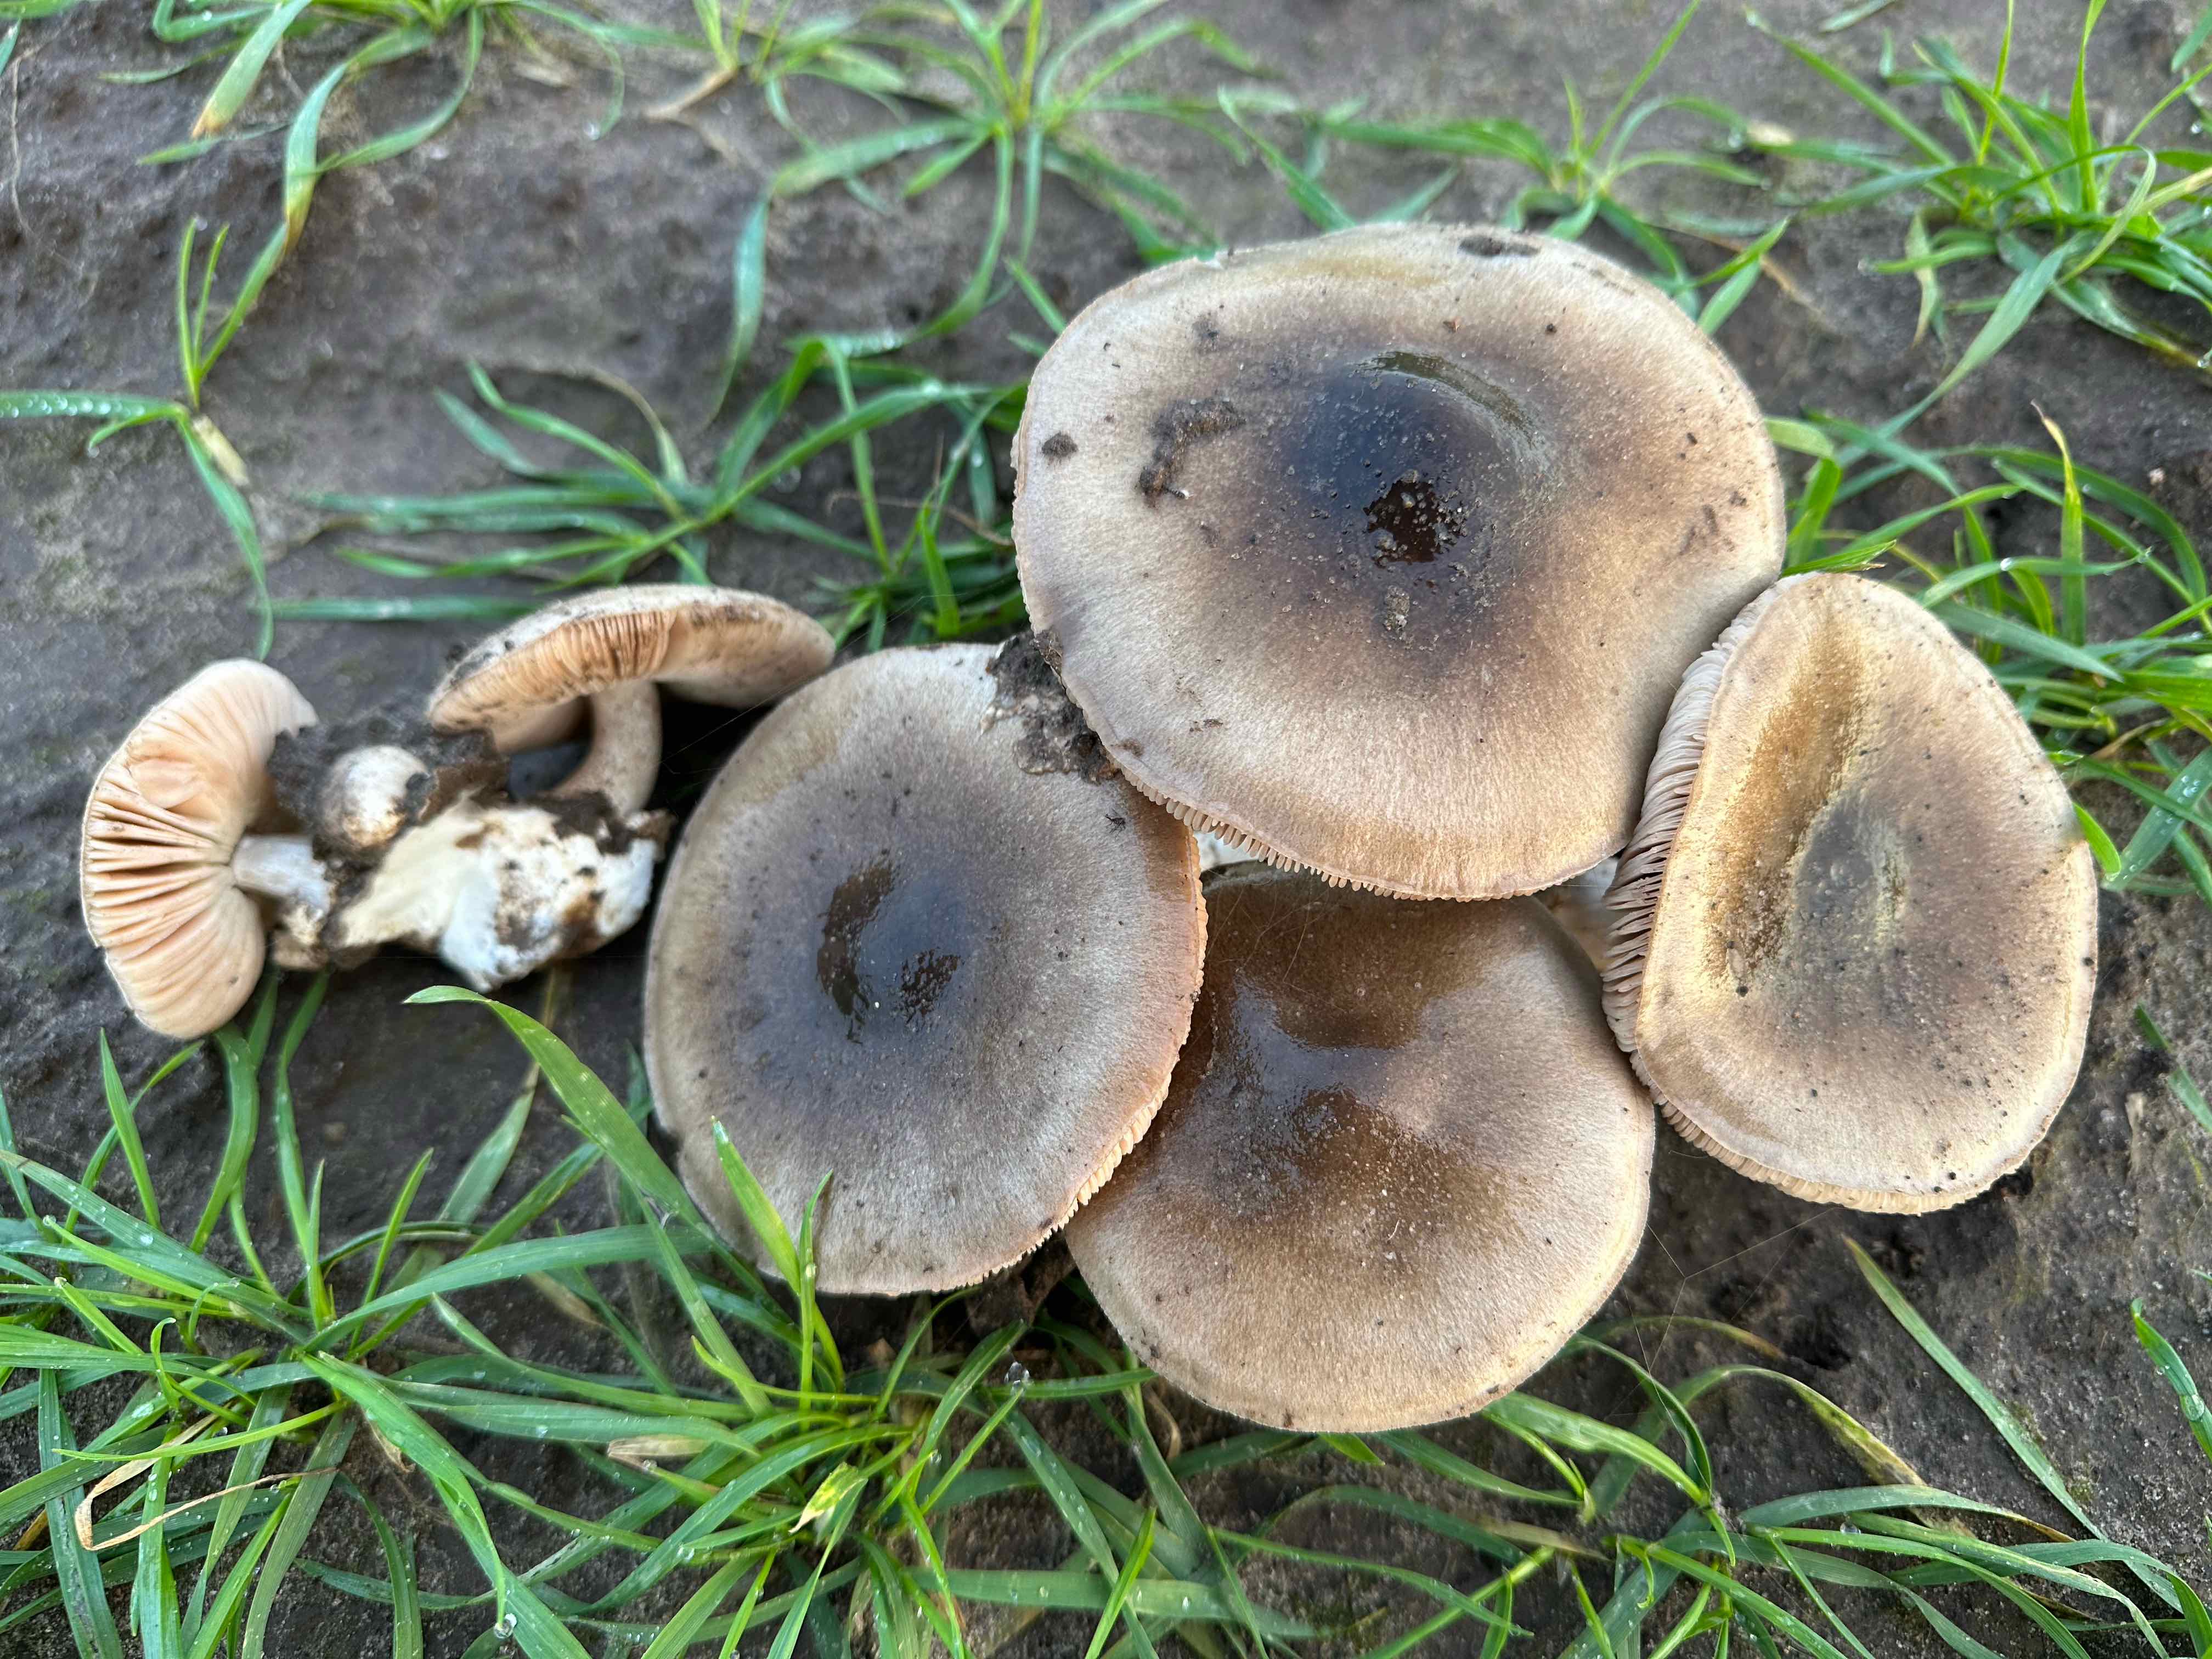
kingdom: Fungi
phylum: Basidiomycota
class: Agaricomycetes
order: Agaricales
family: Pluteaceae
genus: Volvopluteus
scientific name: Volvopluteus gloiocephalus
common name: høj posesvamp
